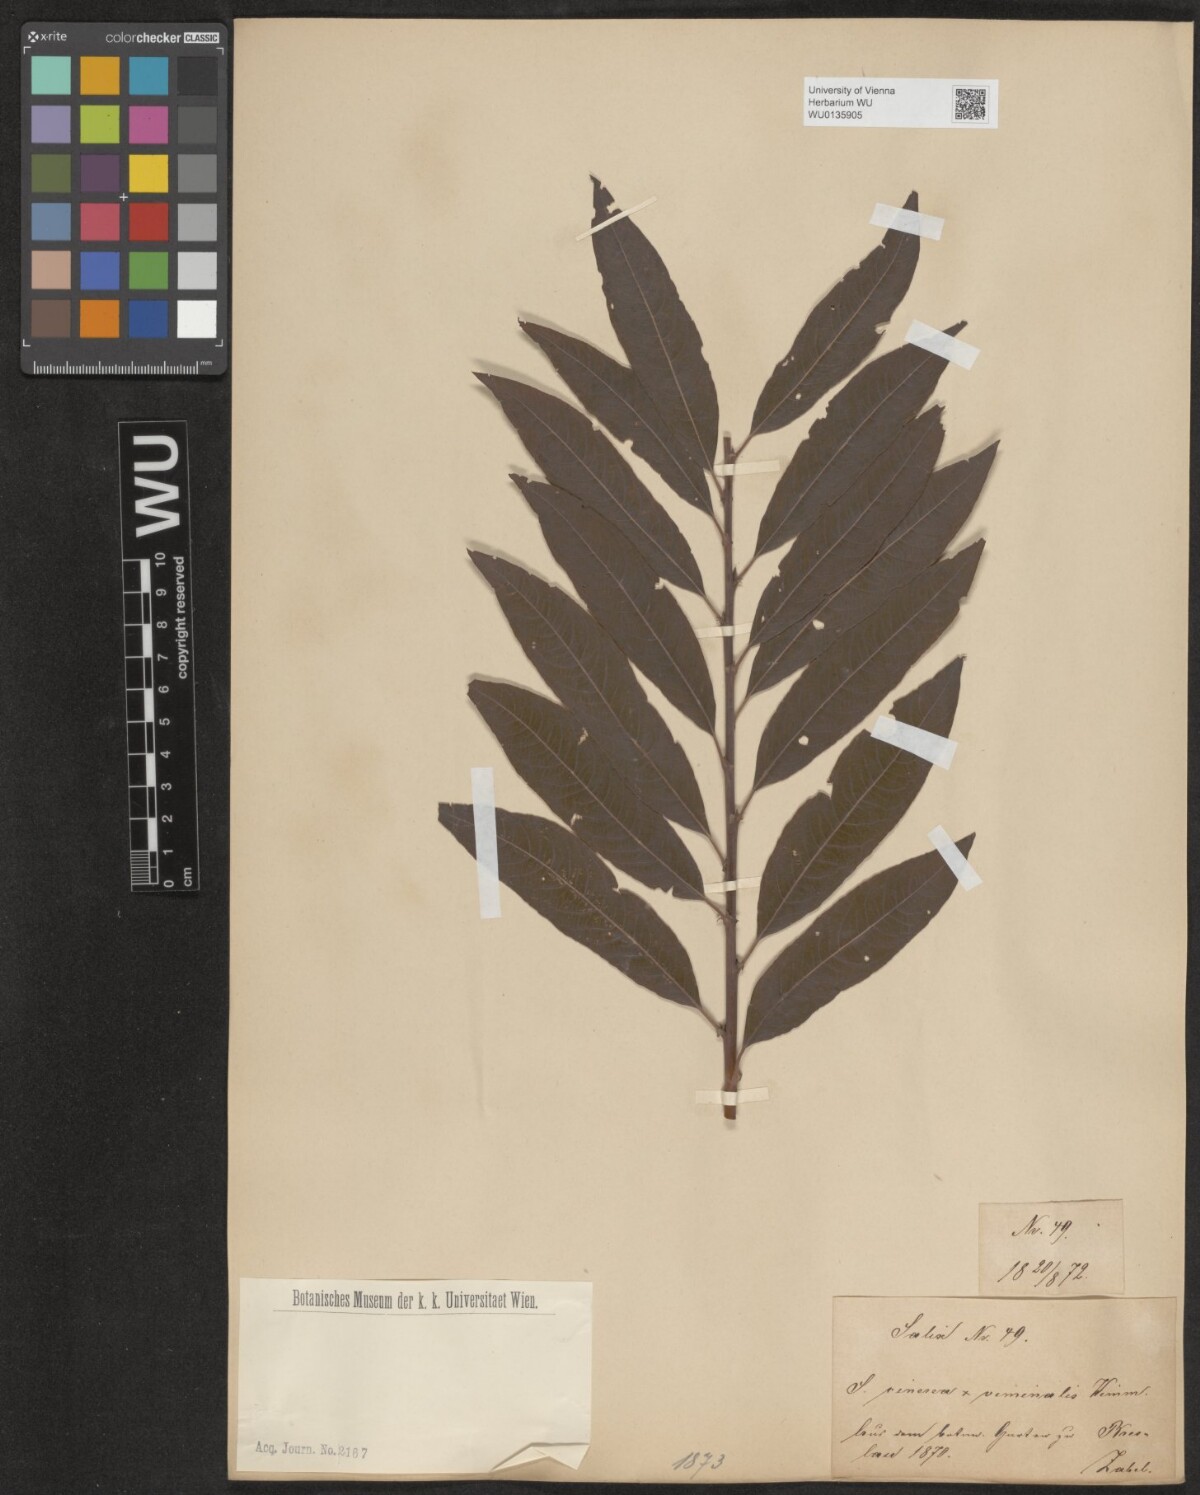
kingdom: Plantae
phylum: Tracheophyta
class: Magnoliopsida
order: Malpighiales
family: Salicaceae
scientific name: Salicaceae
